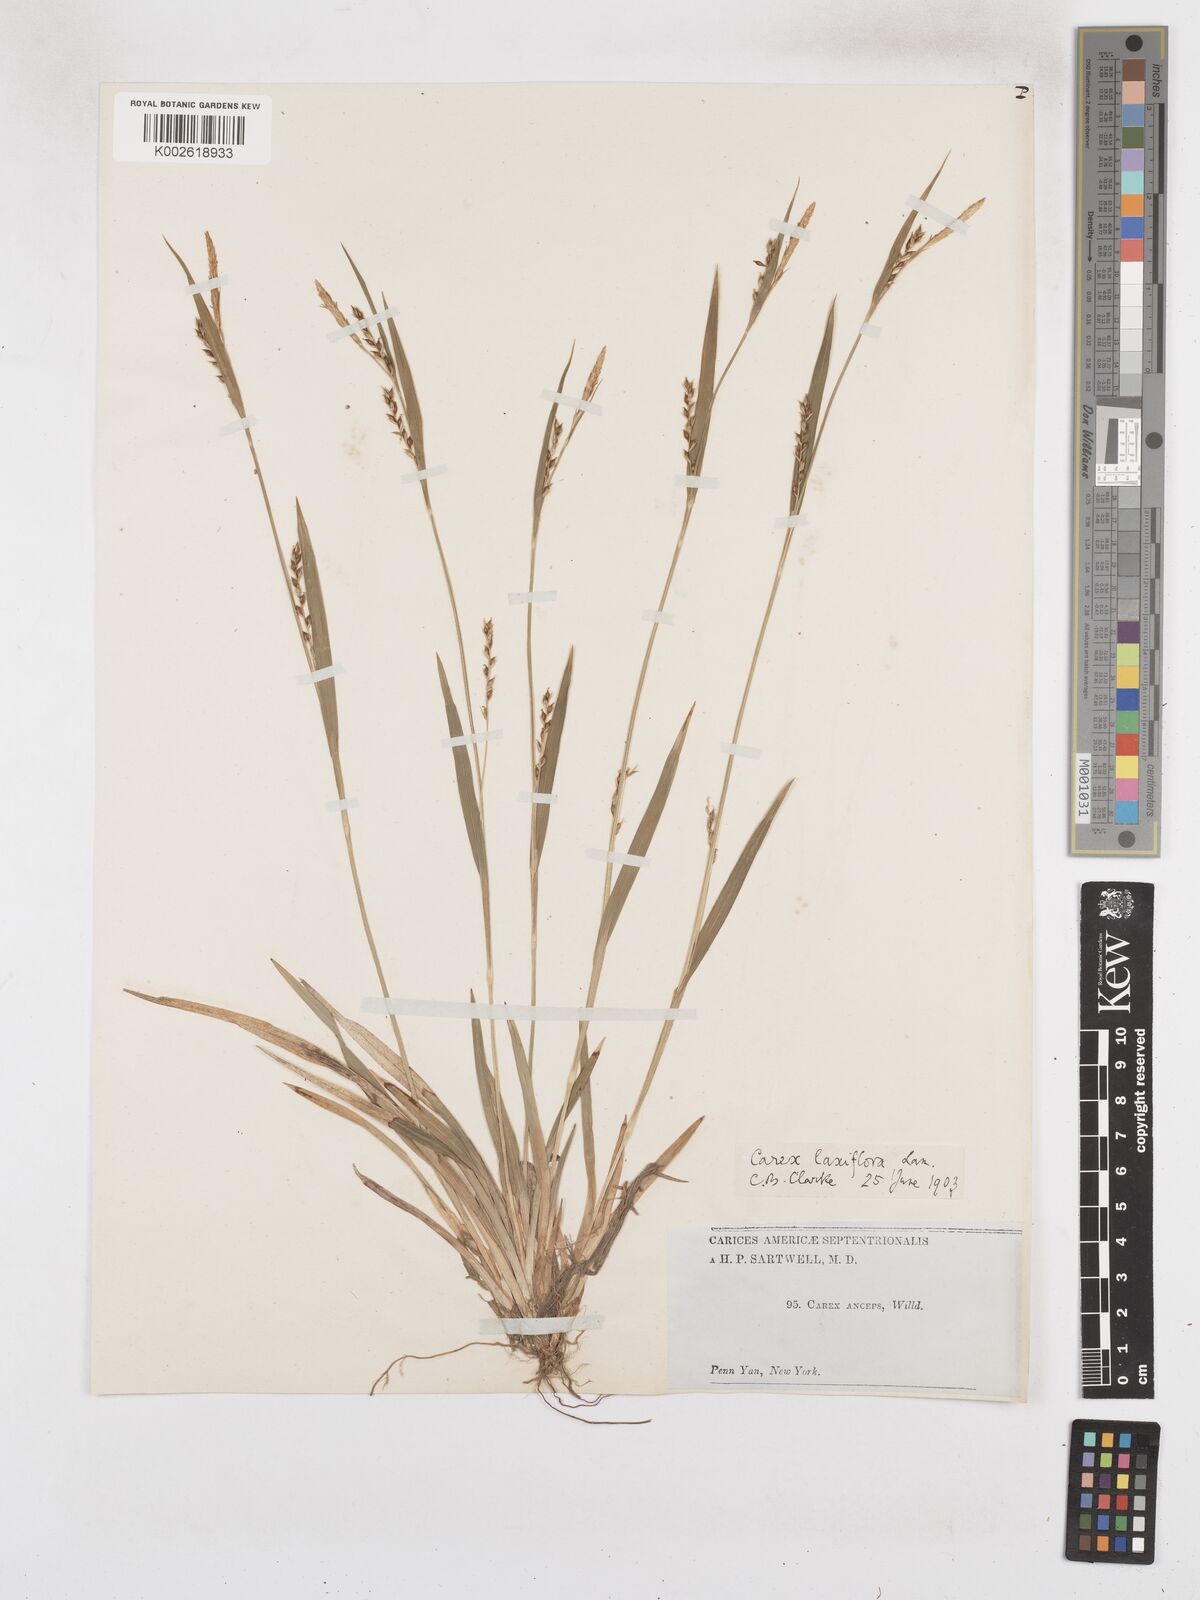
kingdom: Plantae
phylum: Tracheophyta
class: Liliopsida
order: Poales
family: Cyperaceae
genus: Carex
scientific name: Carex laxiflora
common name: Beech wood sedge
